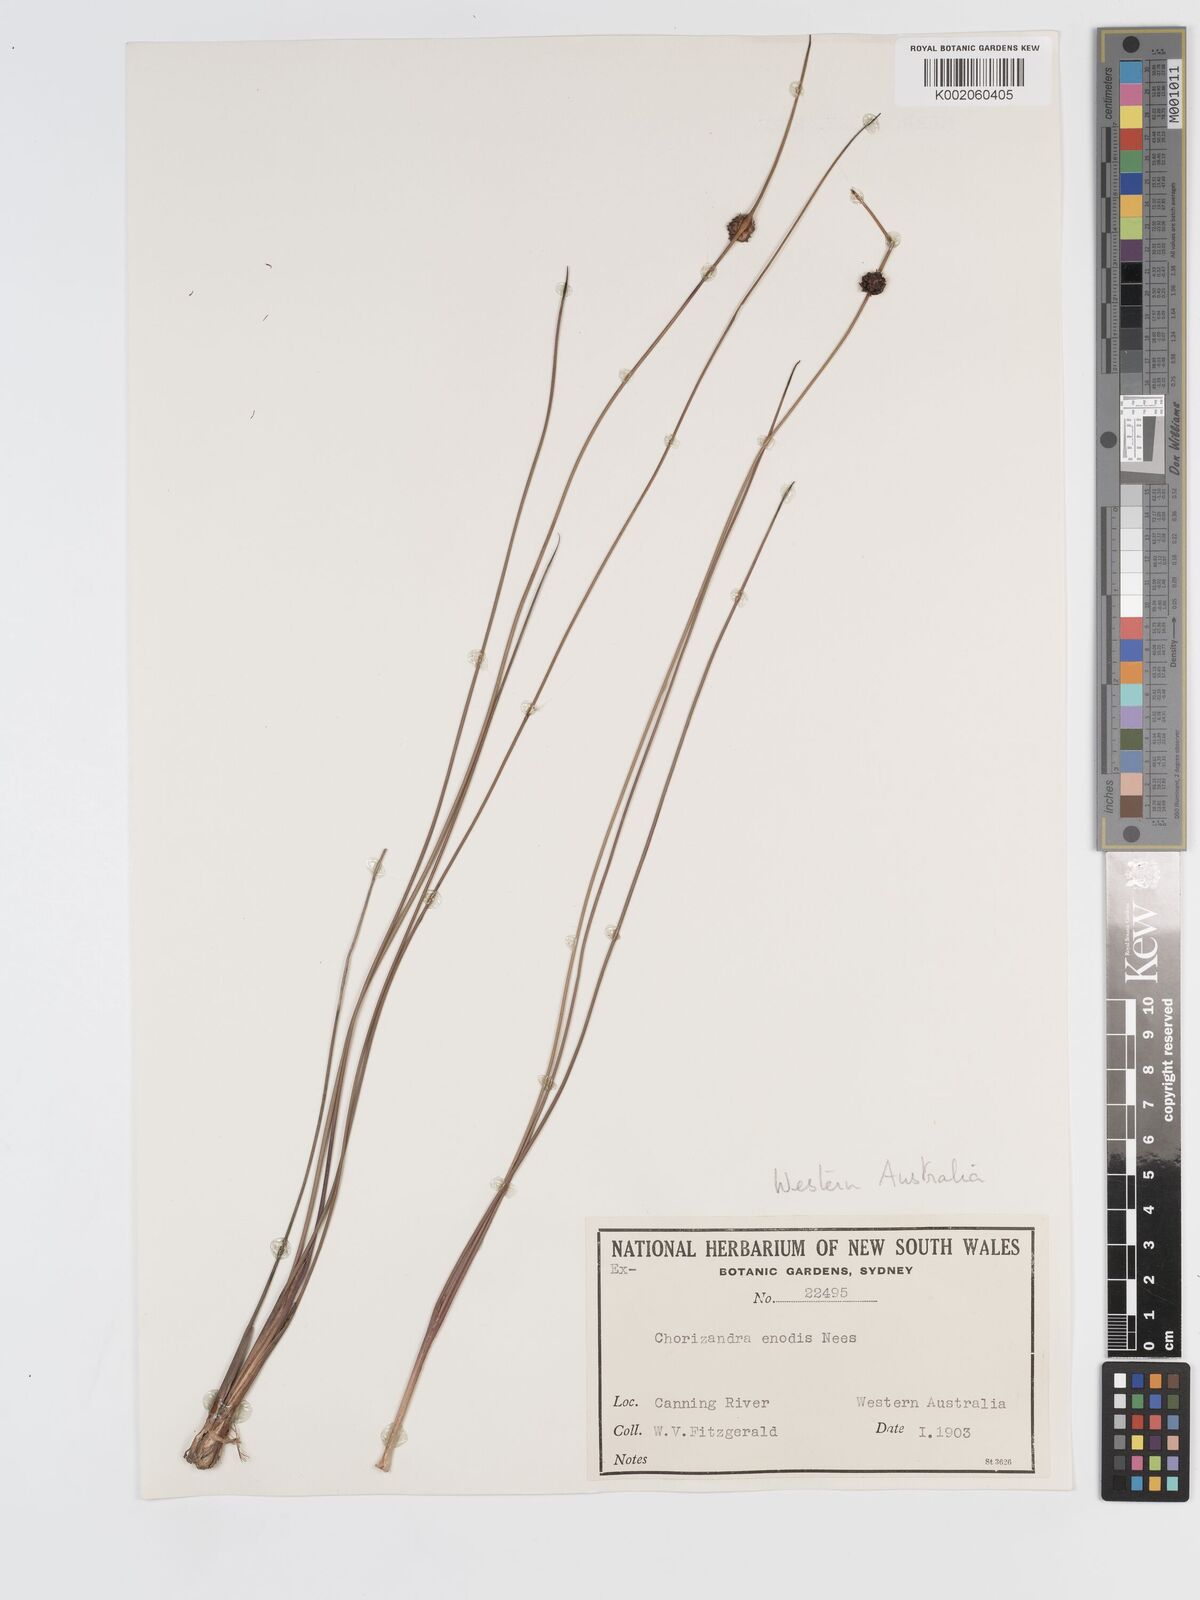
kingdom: Plantae
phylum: Tracheophyta
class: Liliopsida
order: Poales
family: Cyperaceae
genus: Chorizandra
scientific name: Chorizandra enodis
